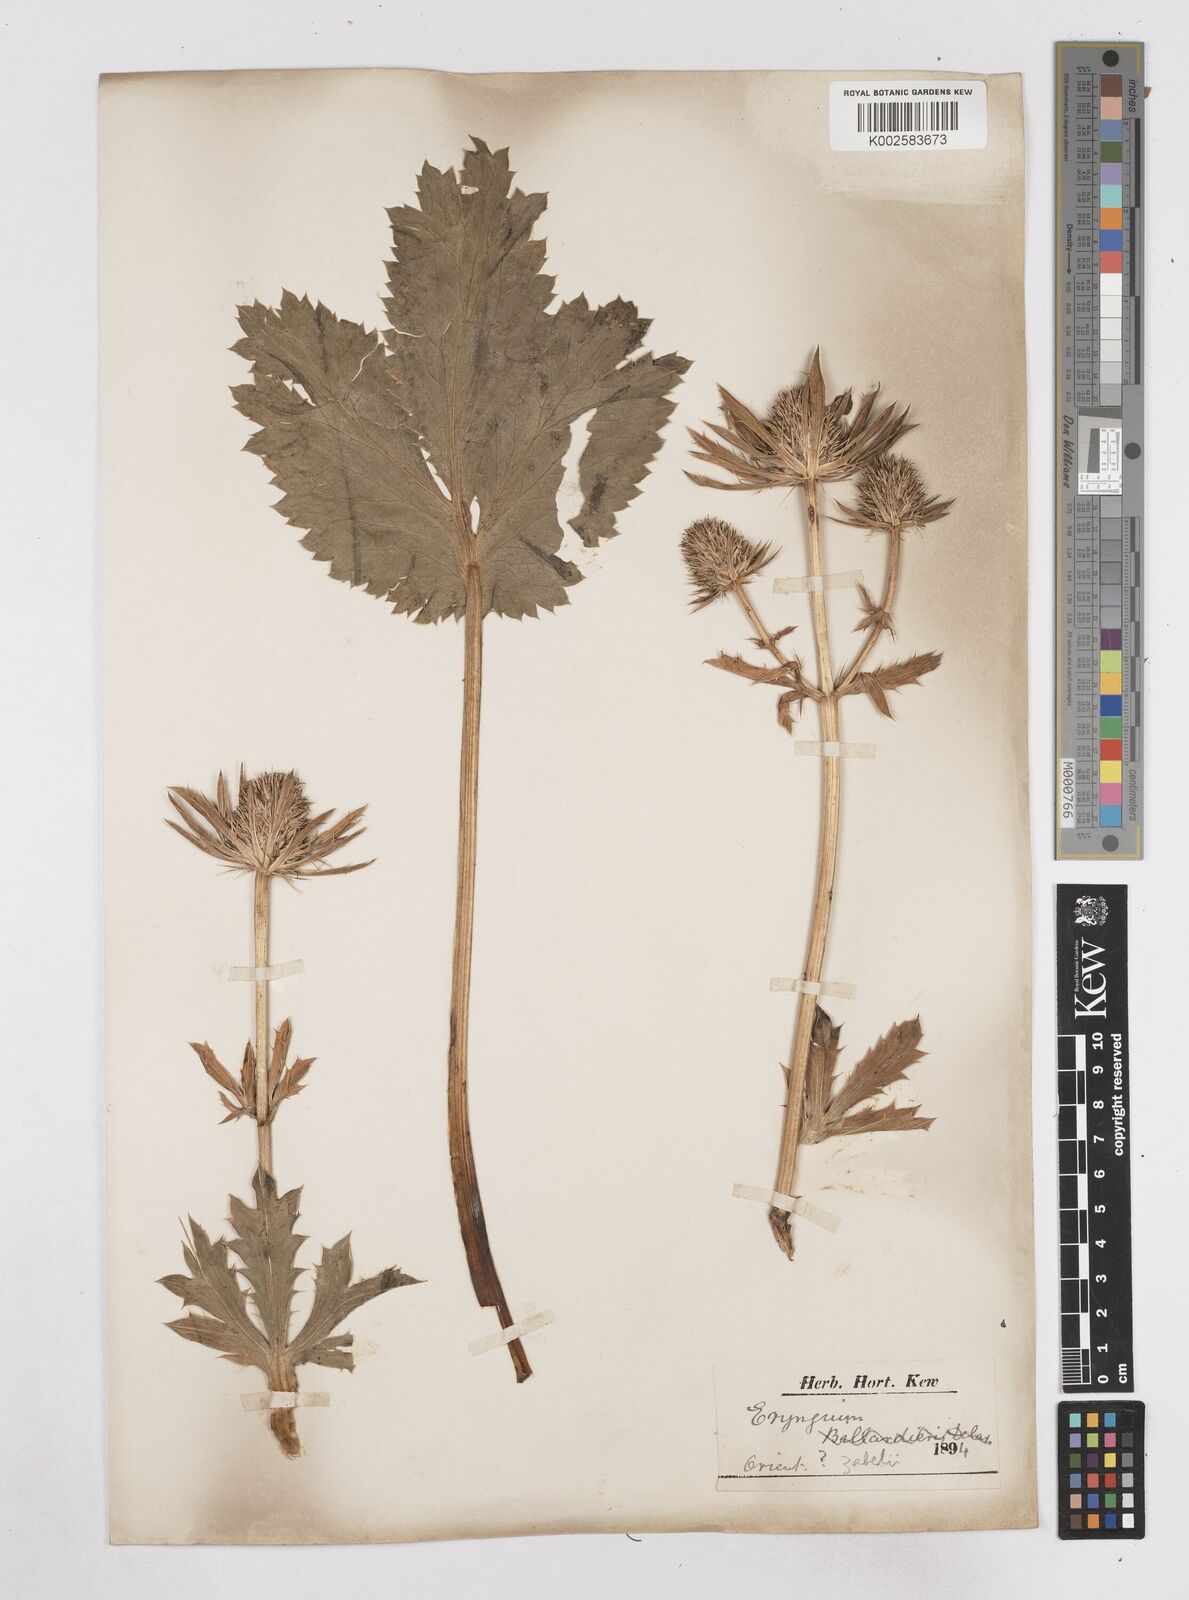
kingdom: Plantae
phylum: Tracheophyta
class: Magnoliopsida
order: Apiales
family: Apiaceae
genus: Eryngium
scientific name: Eryngium oliverianum
